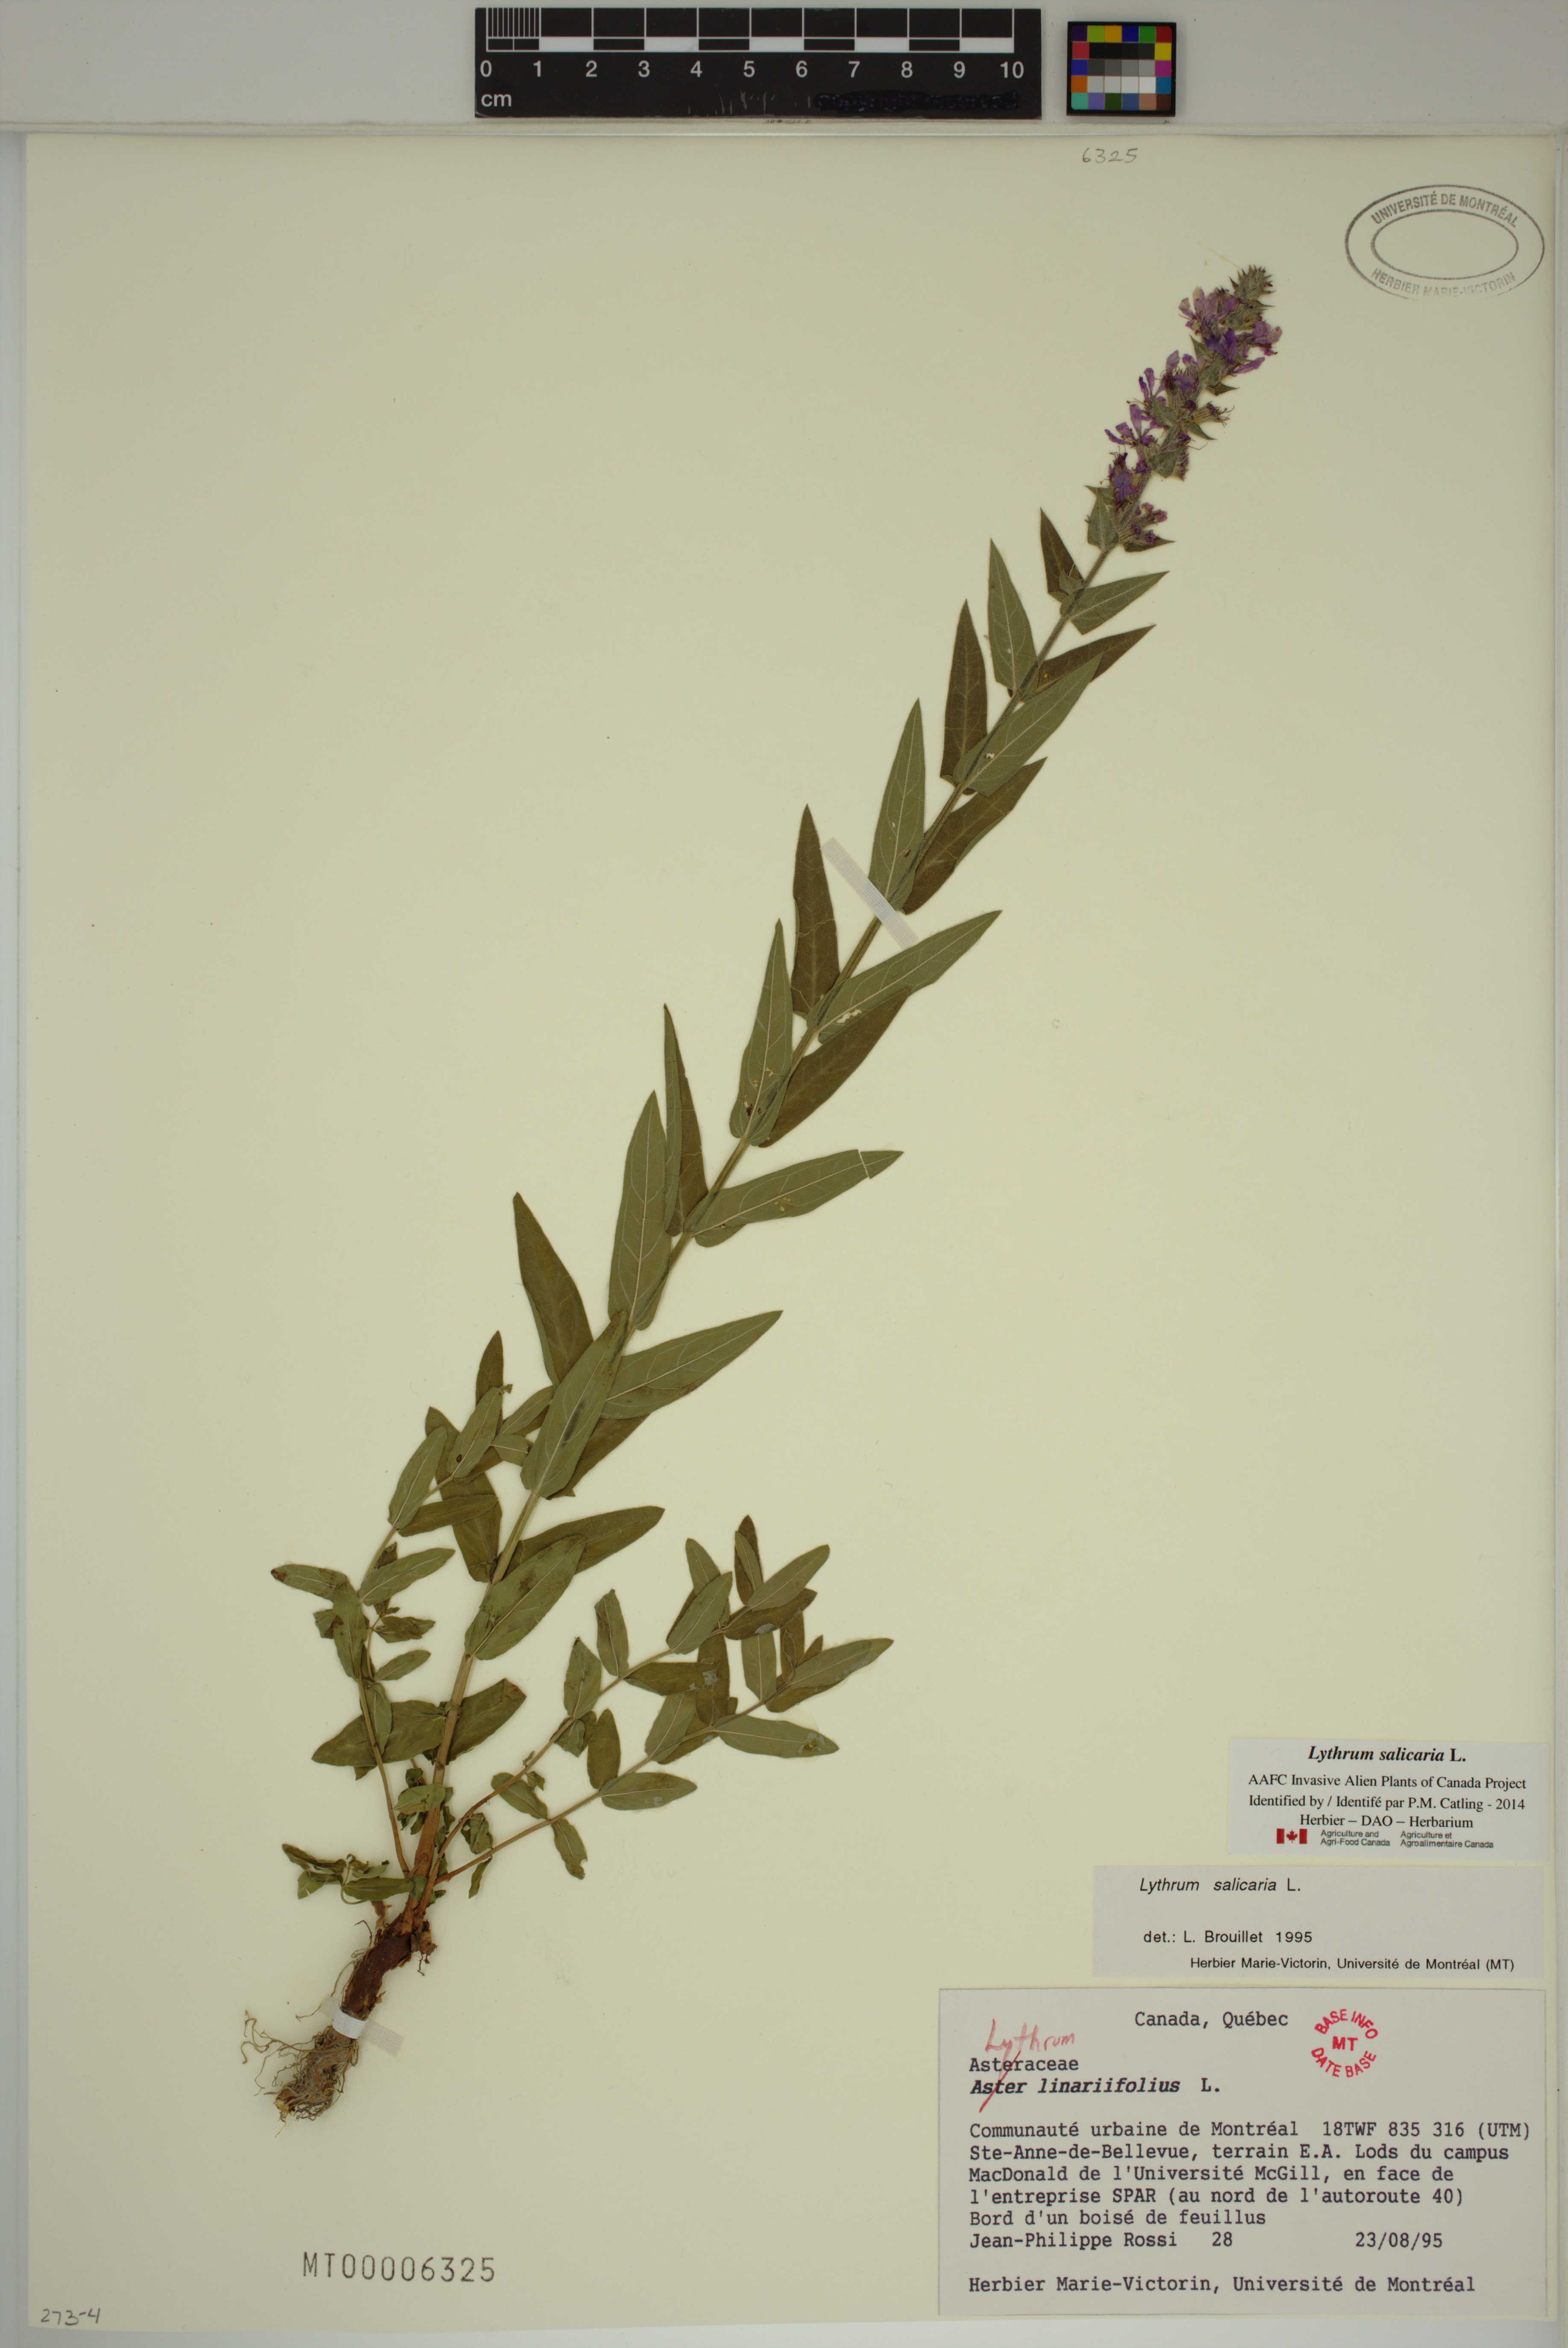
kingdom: Plantae
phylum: Tracheophyta
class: Magnoliopsida
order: Myrtales
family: Lythraceae
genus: Lythrum
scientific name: Lythrum salicaria
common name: Purple loosestrife
